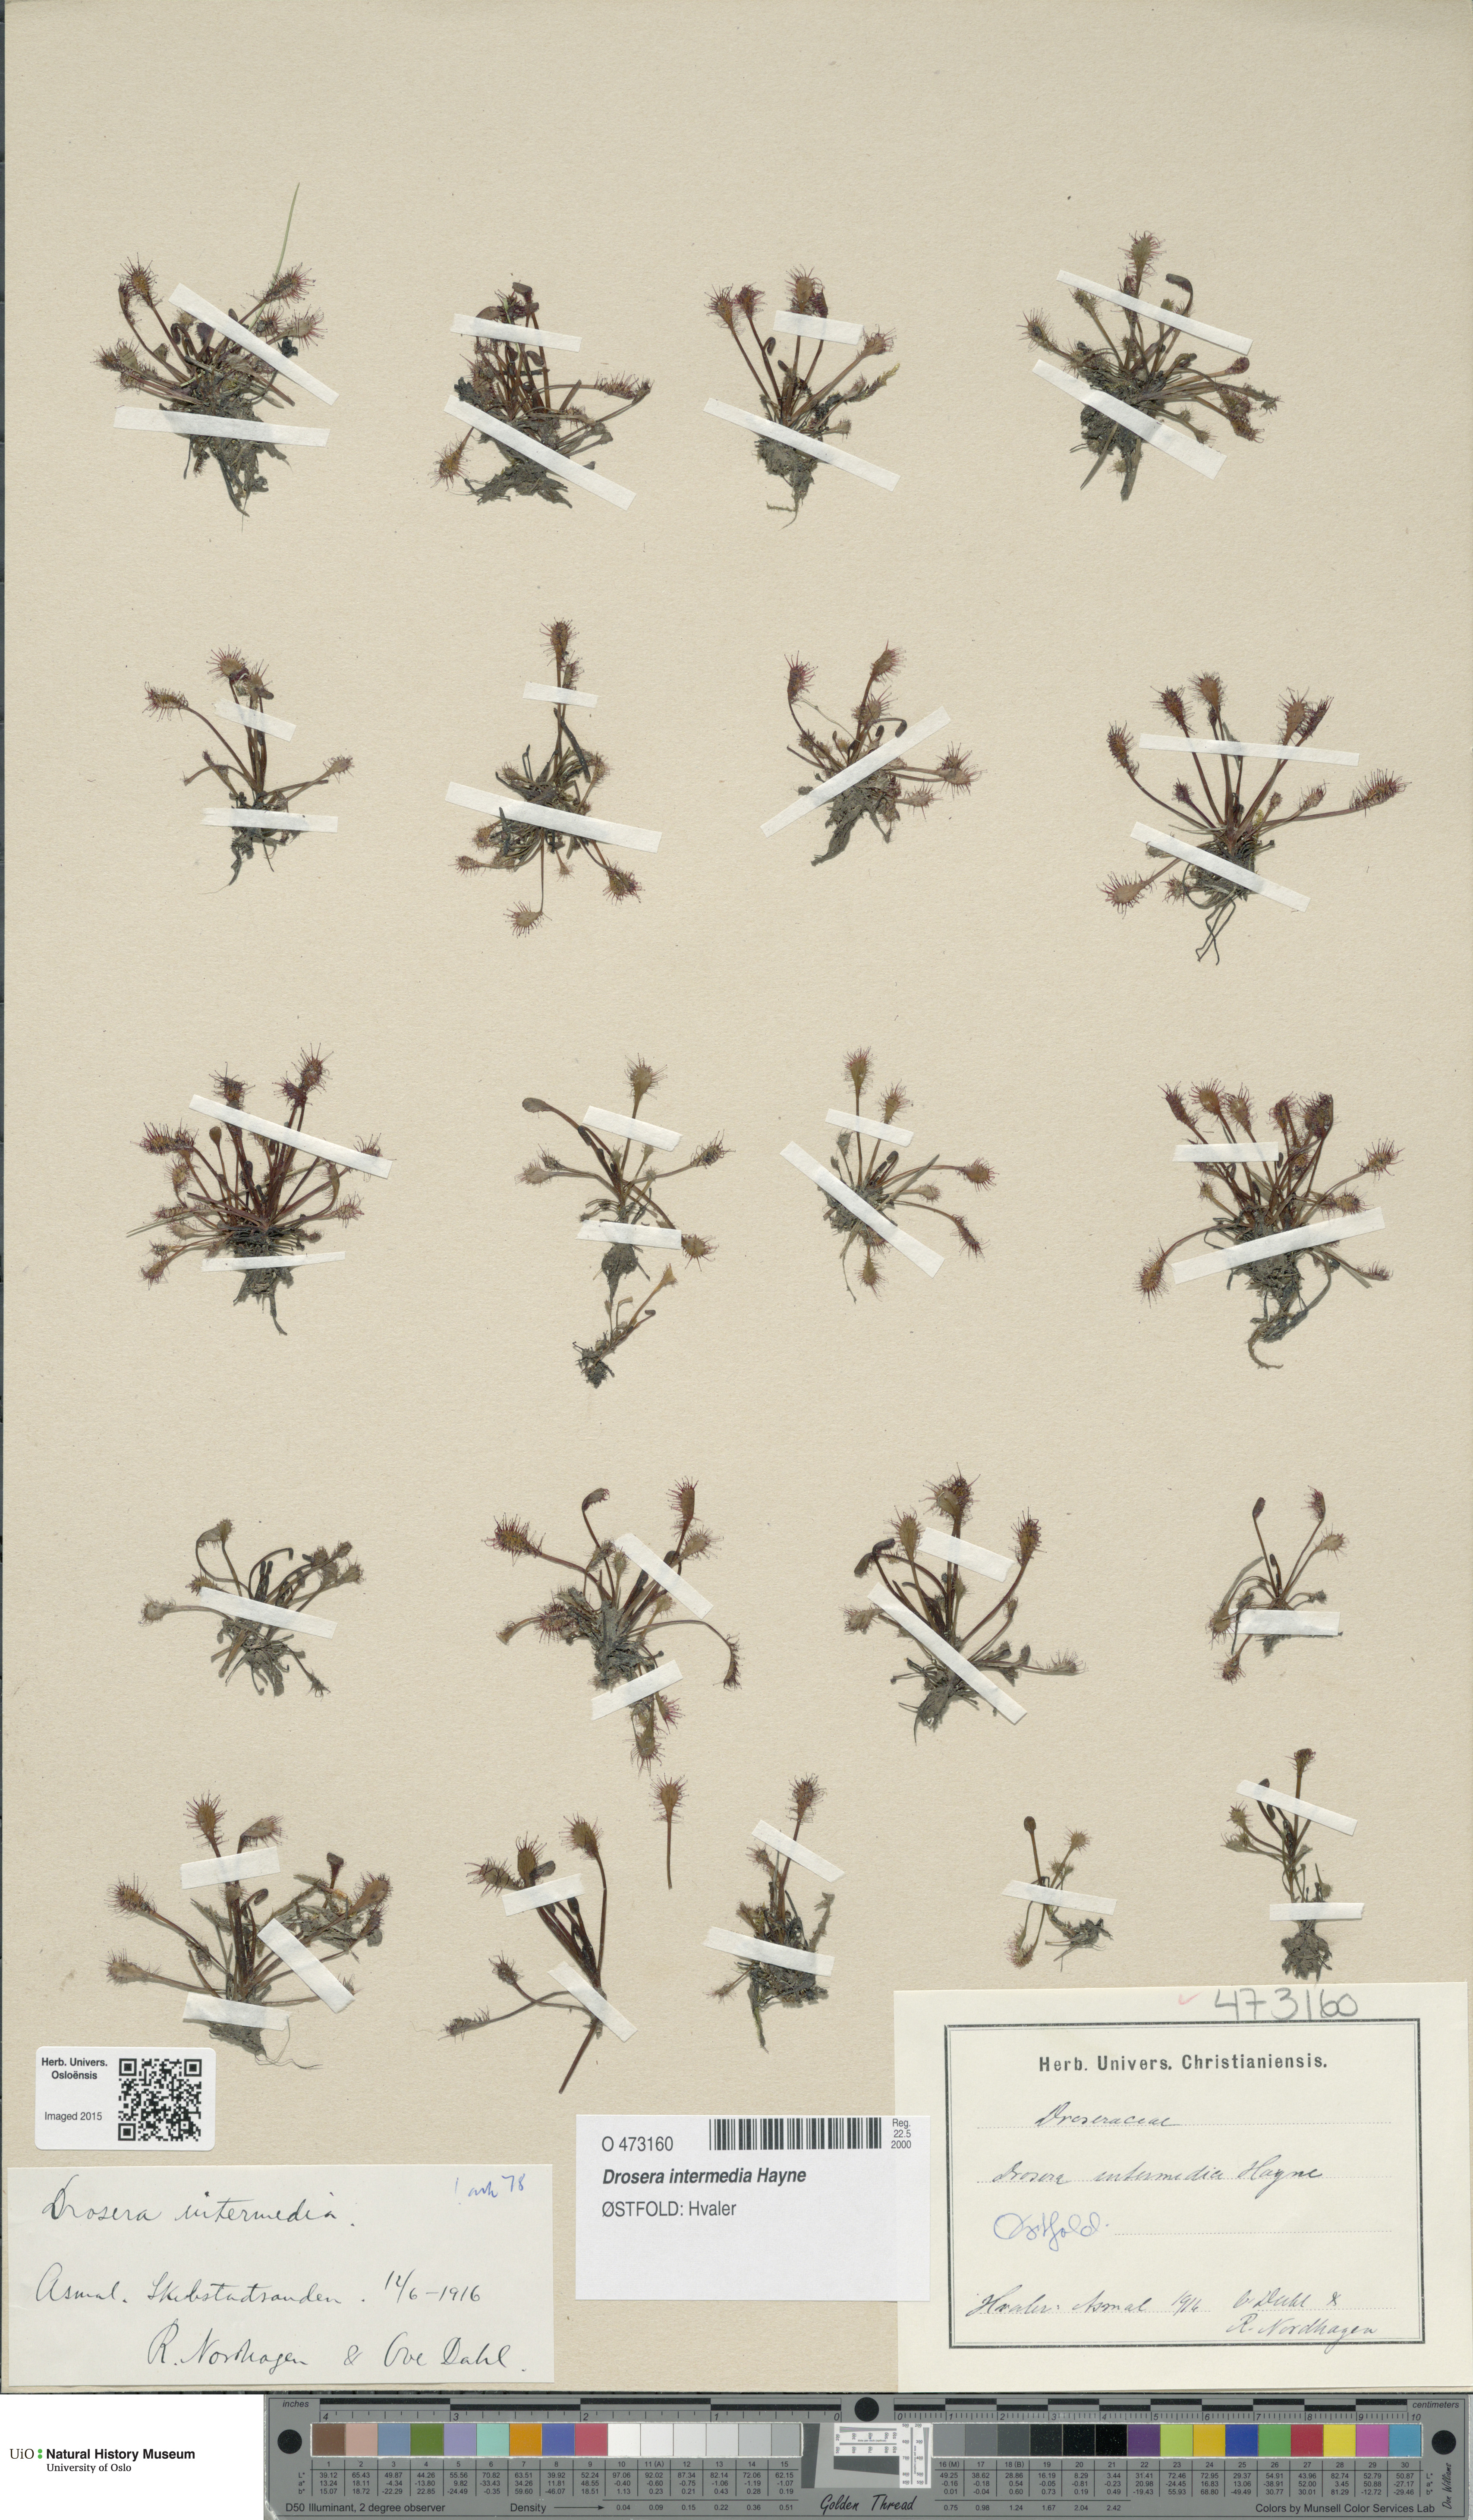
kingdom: Plantae
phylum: Tracheophyta
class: Magnoliopsida
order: Caryophyllales
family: Droseraceae
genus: Drosera
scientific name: Drosera intermedia
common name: Oblong-leaved sundew
